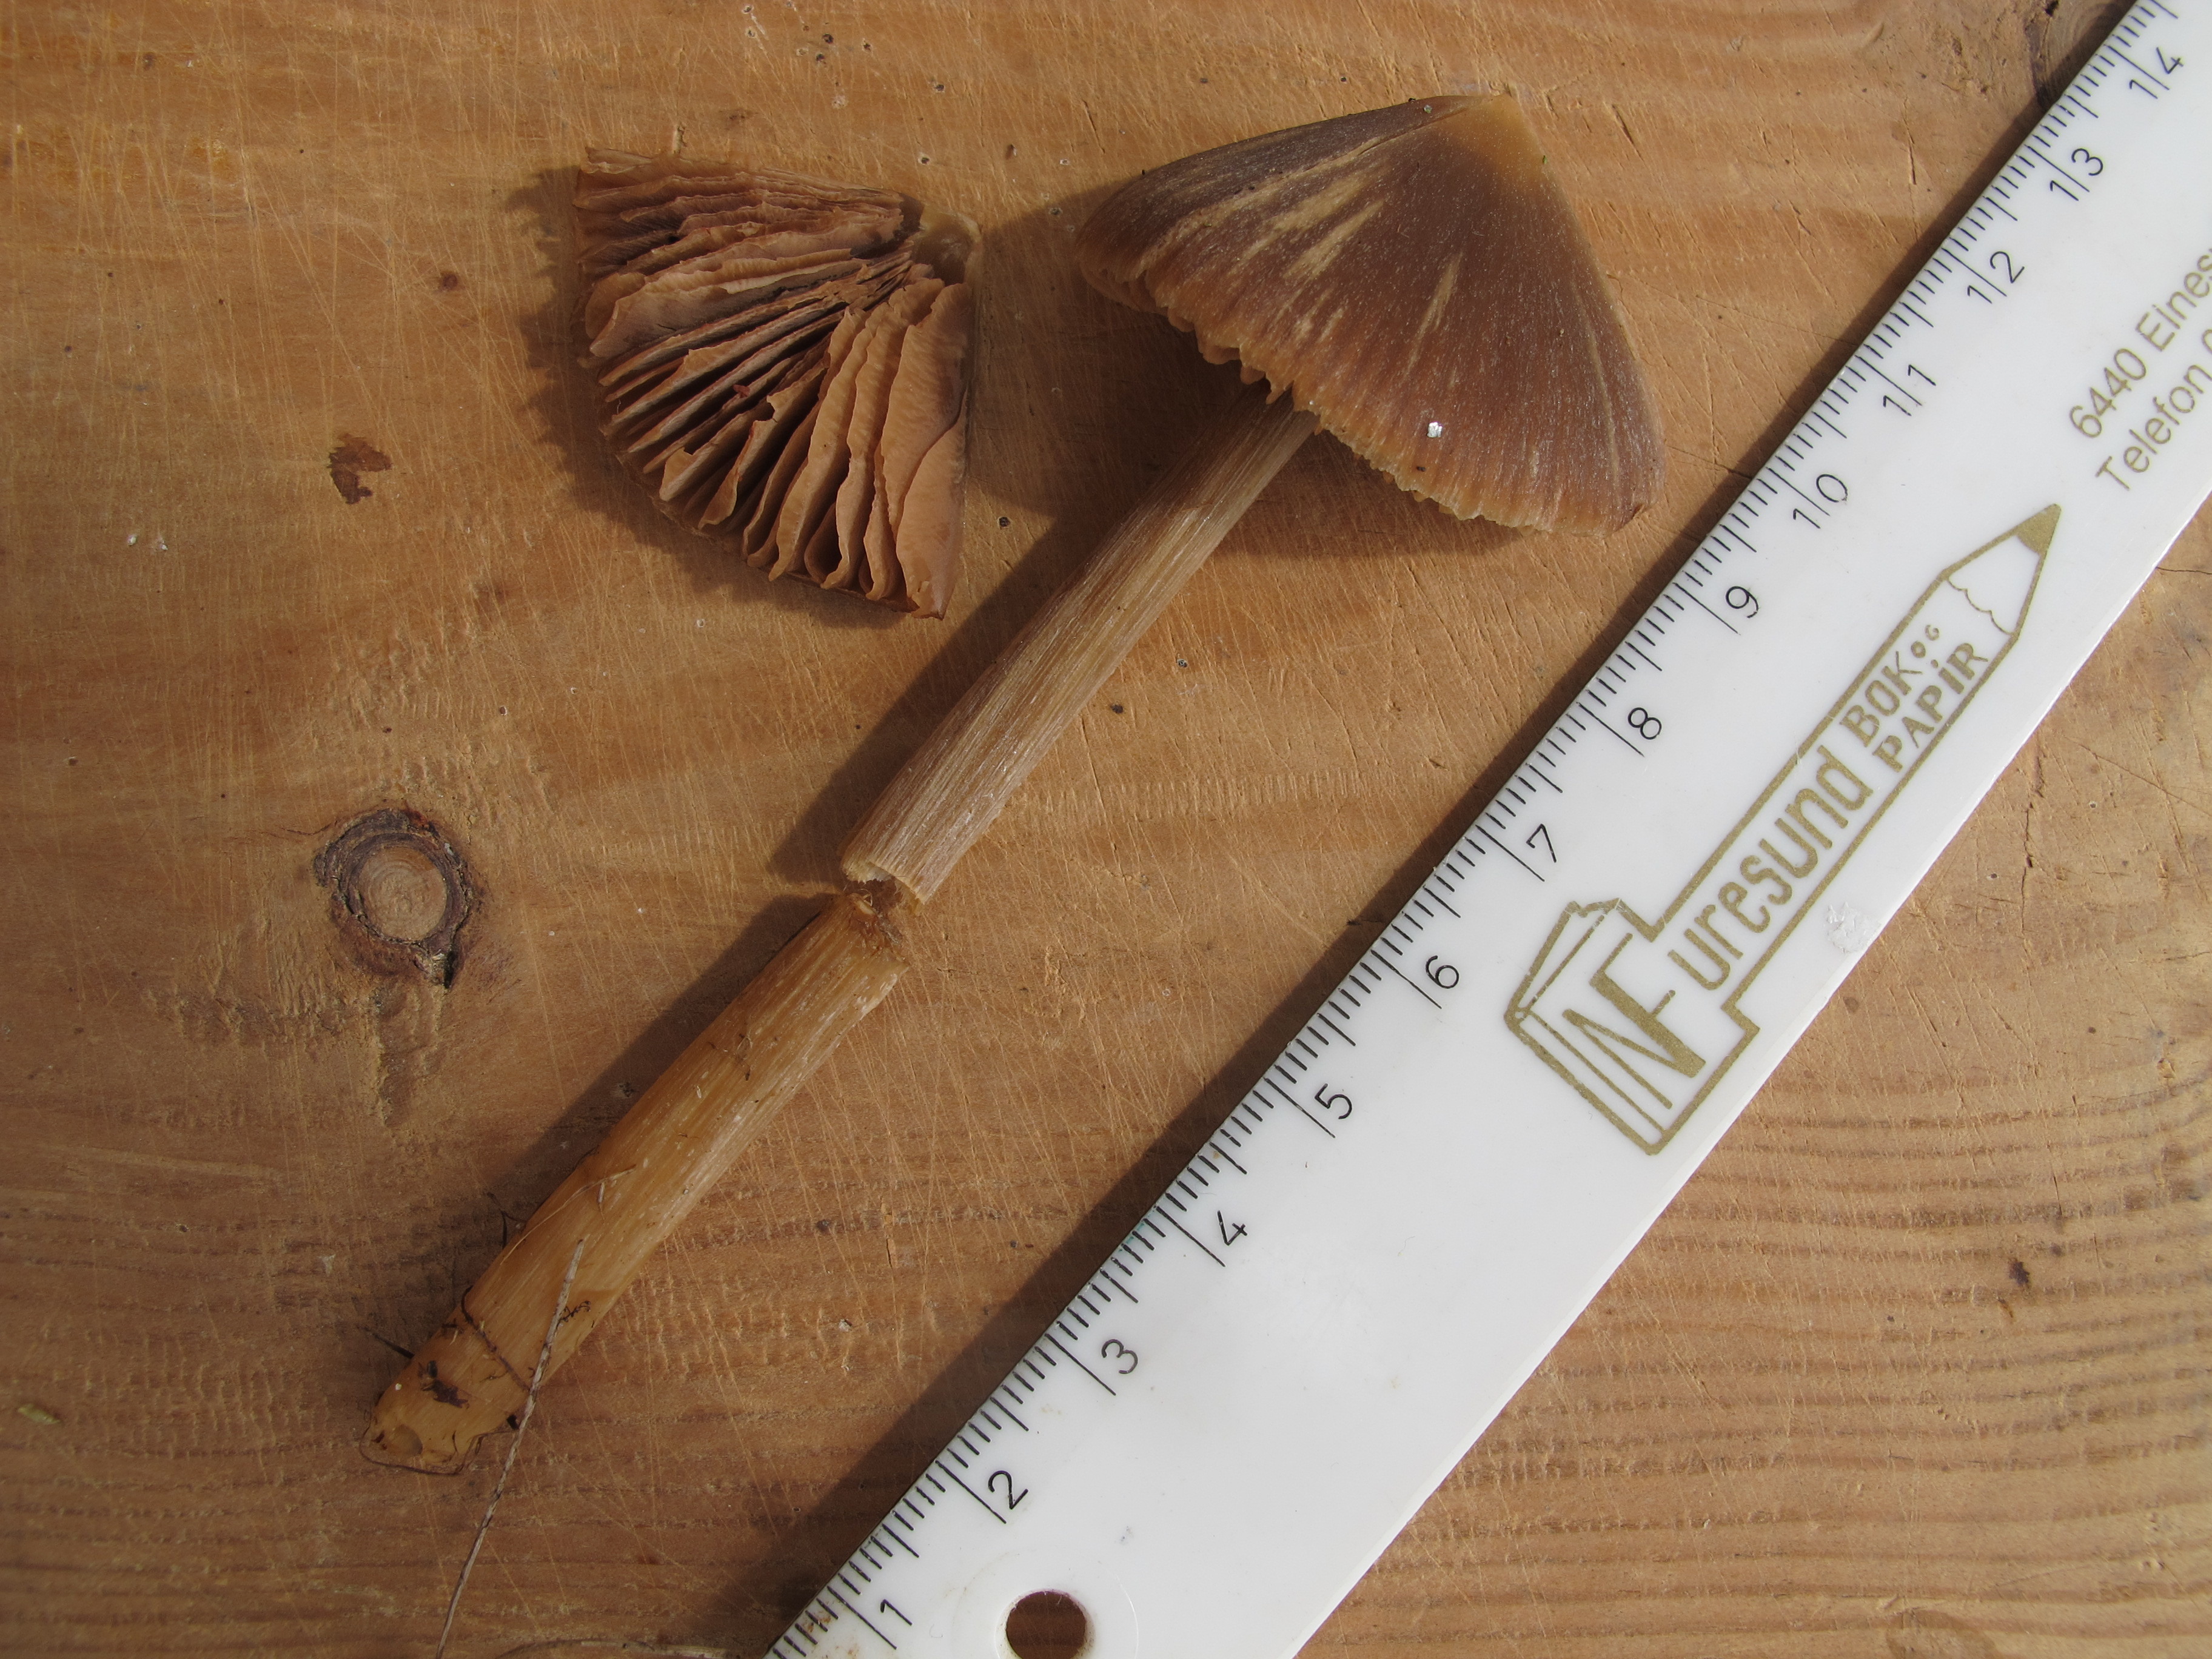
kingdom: Fungi
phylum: Basidiomycota
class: Agaricomycetes
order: Agaricales
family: Entolomataceae
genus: Entoloma
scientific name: Entoloma pallescens
